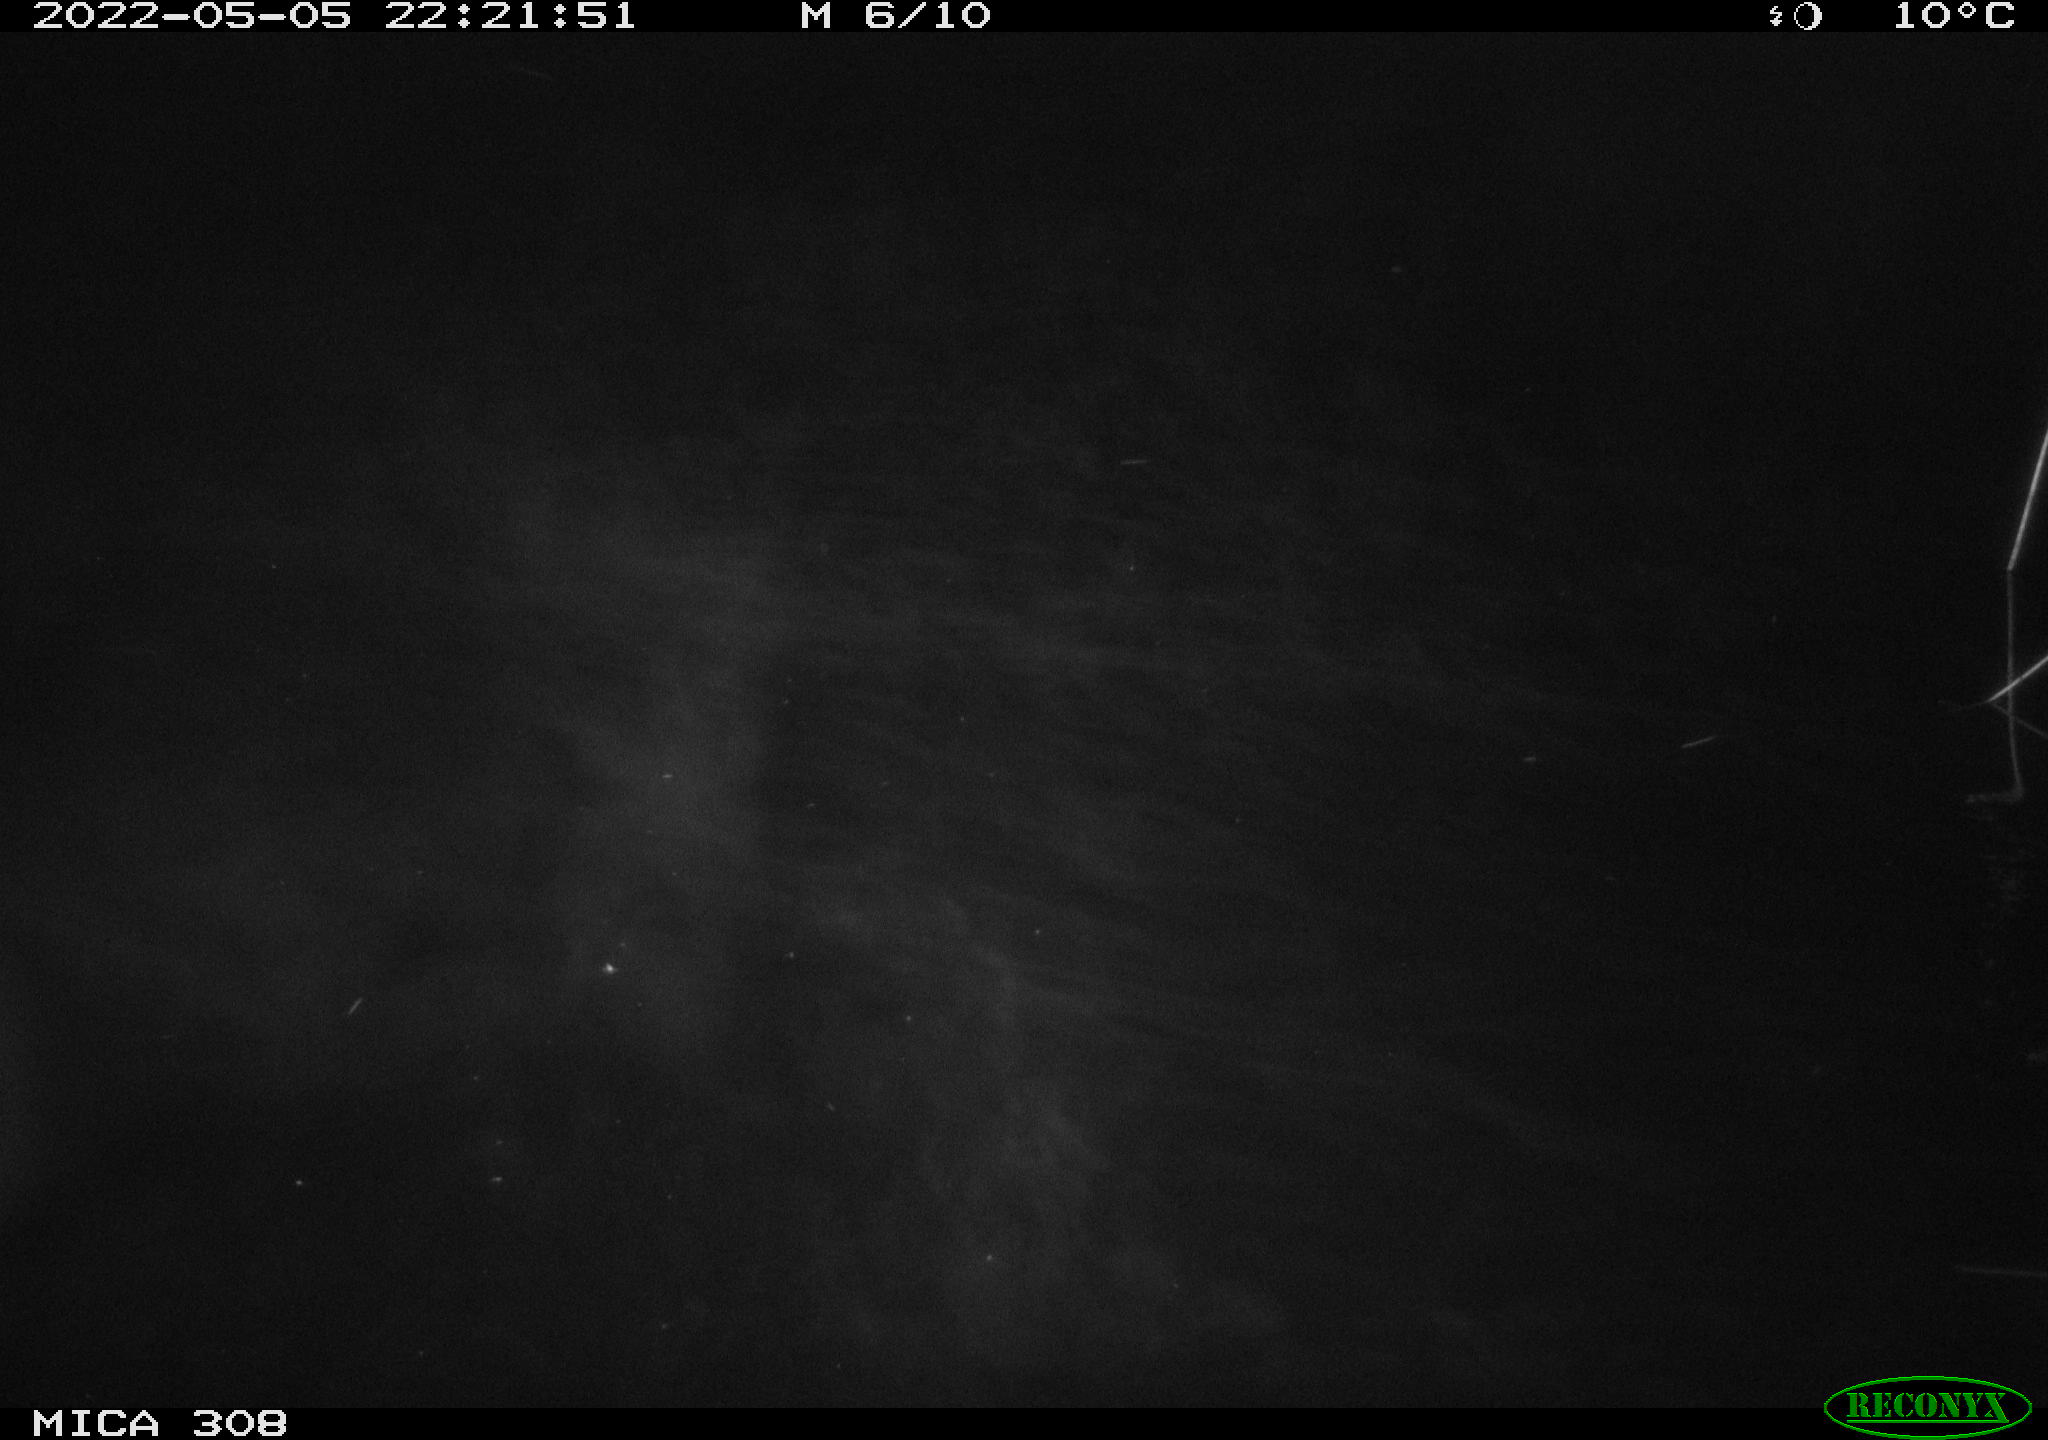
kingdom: Animalia
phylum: Chordata
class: Mammalia
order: Rodentia
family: Muridae
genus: Rattus
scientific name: Rattus norvegicus
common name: Brown rat
